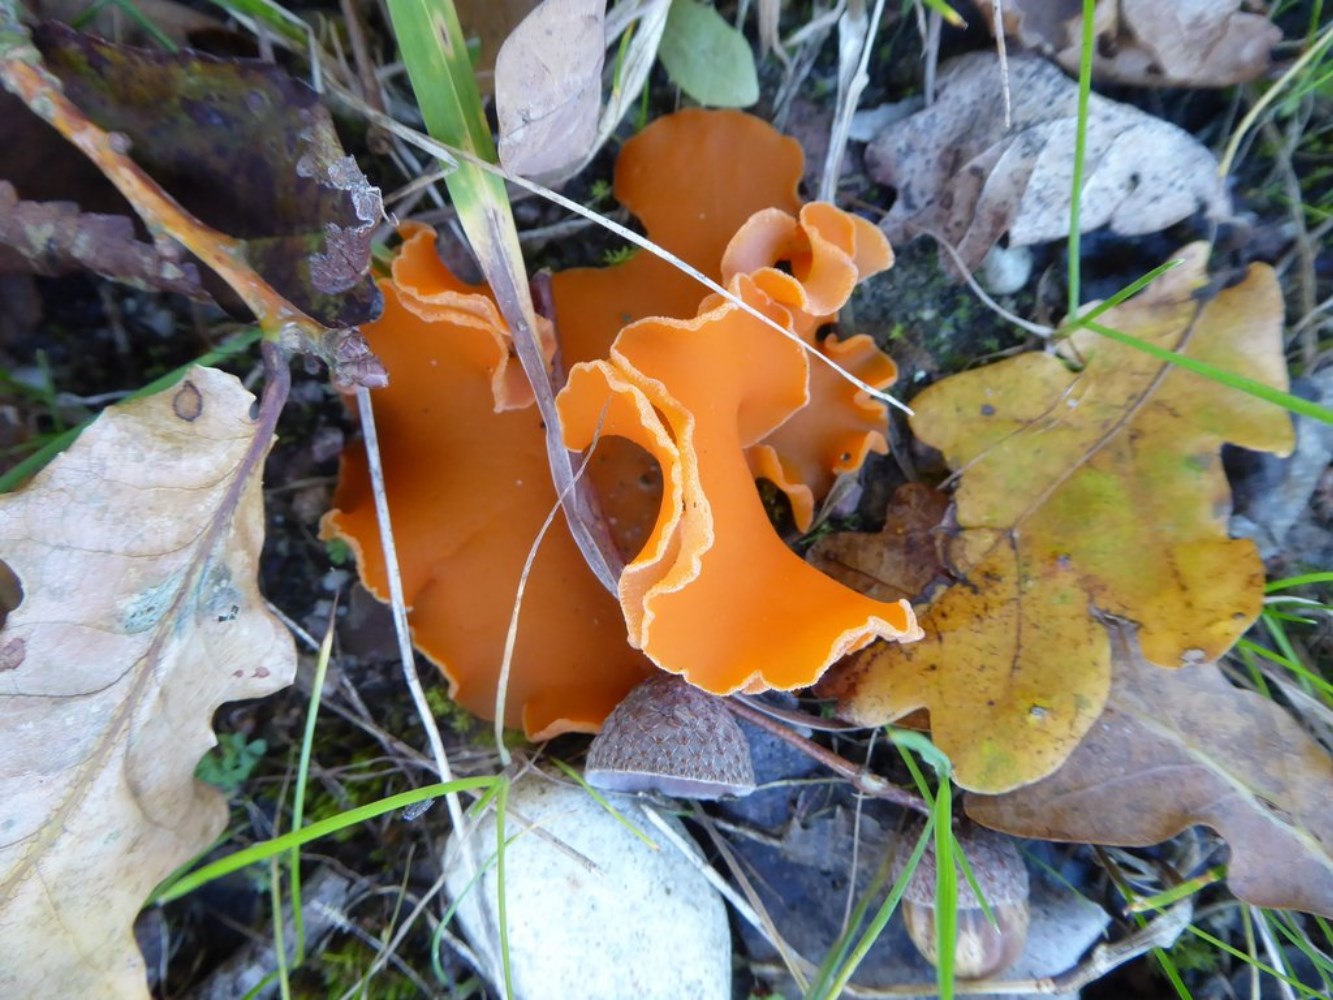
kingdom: Fungi
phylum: Ascomycota
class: Pezizomycetes
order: Pezizales
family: Pyronemataceae
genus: Aleuria
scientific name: Aleuria aurantia
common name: almindelig orangebæger
